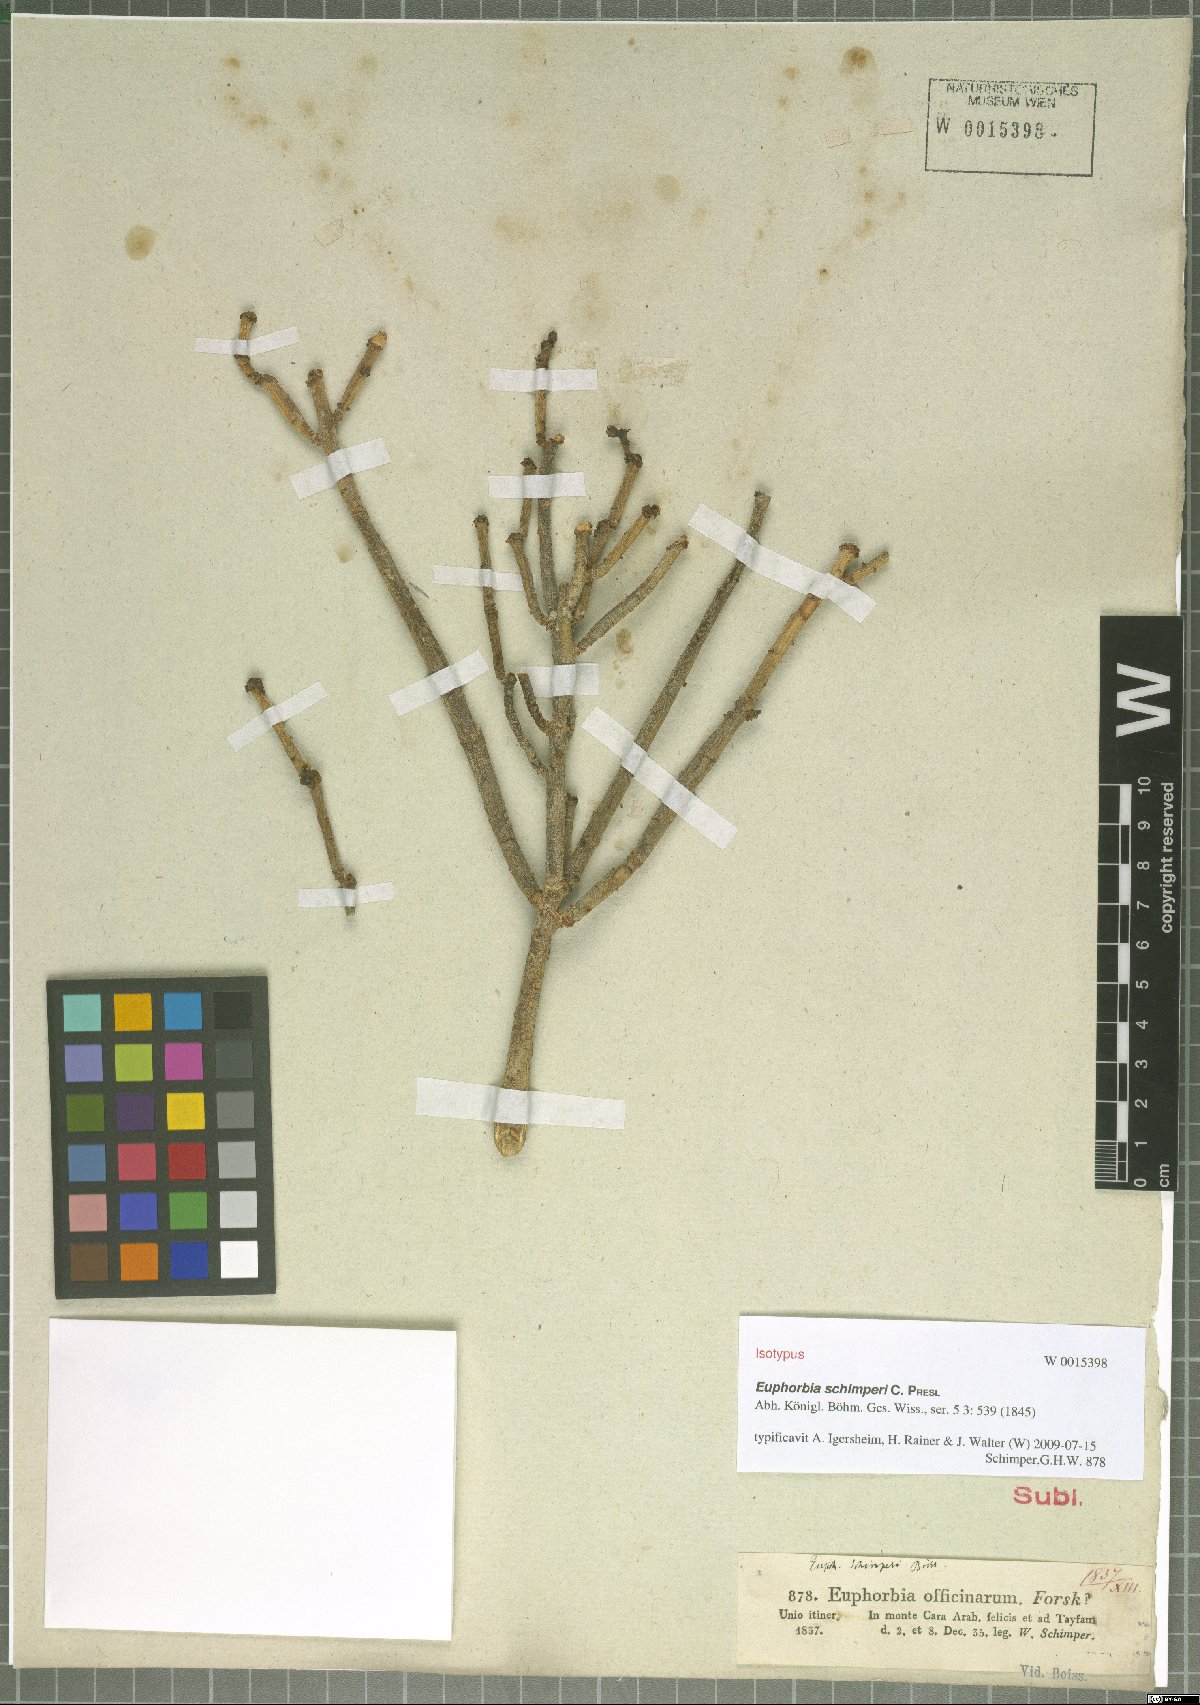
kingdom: Plantae
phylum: Tracheophyta
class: Magnoliopsida
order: Malpighiales
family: Euphorbiaceae
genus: Euphorbia
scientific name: Euphorbia schimperi
